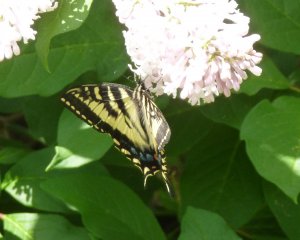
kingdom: Animalia
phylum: Arthropoda
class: Insecta
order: Lepidoptera
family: Papilionidae
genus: Pterourus
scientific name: Pterourus canadensis
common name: Canadian Tiger Swallowtail
